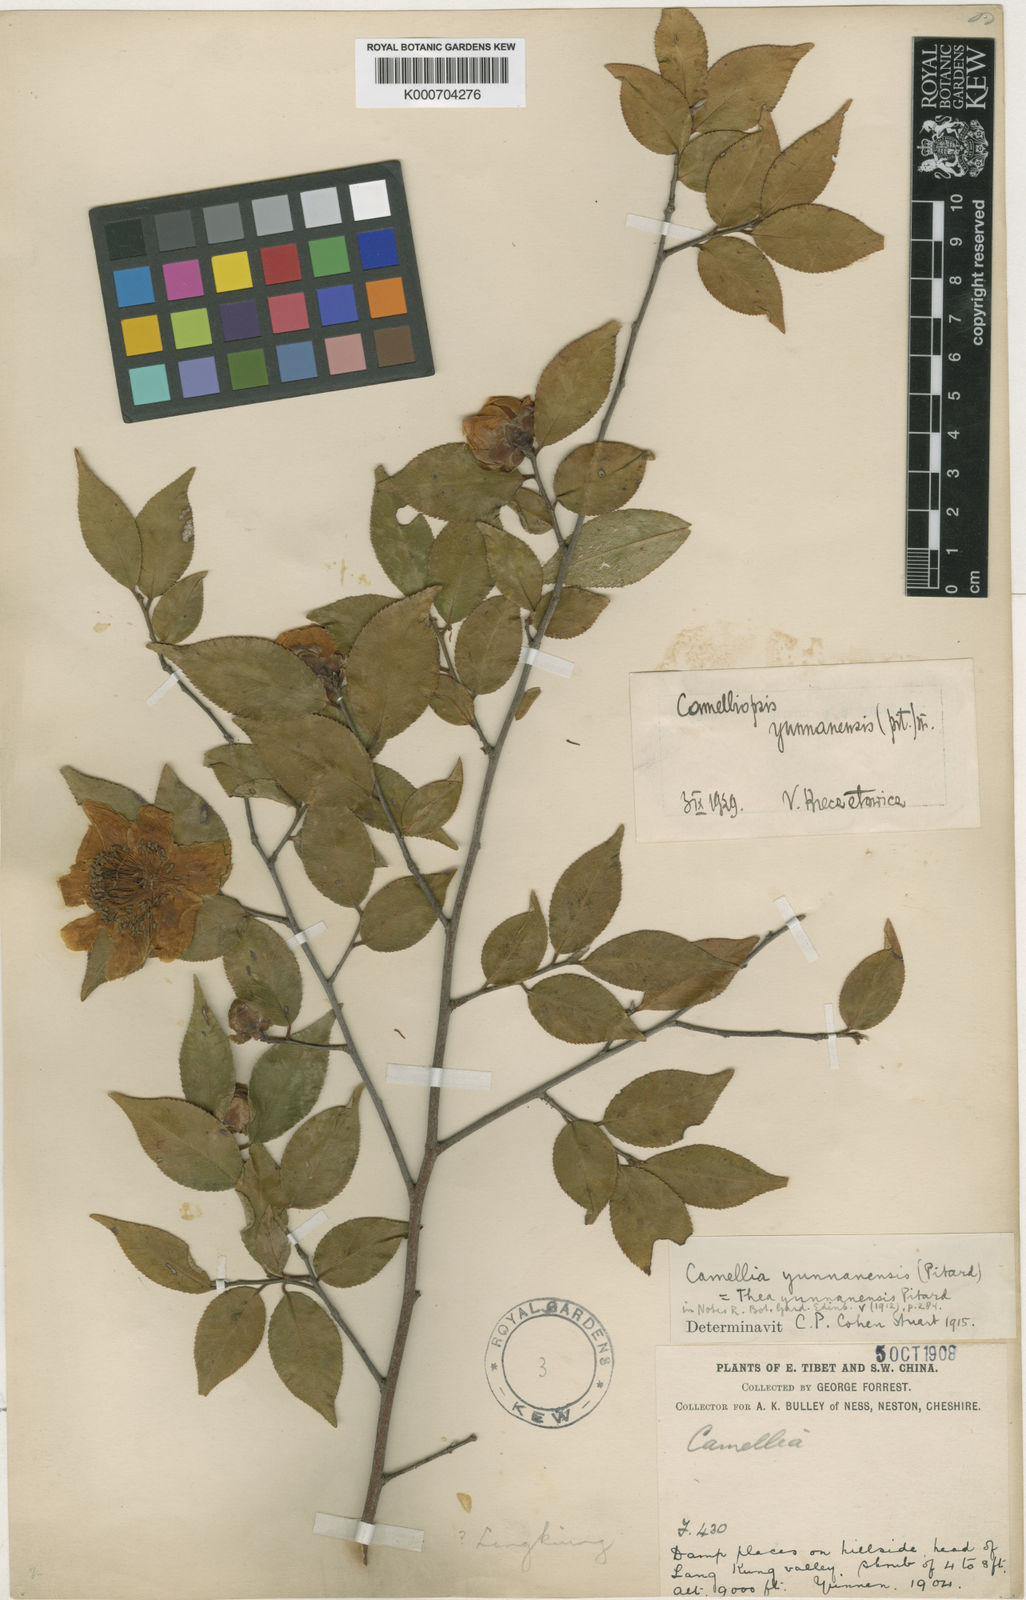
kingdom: Plantae
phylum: Tracheophyta
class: Magnoliopsida
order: Ericales
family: Theaceae
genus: Camellia
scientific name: Camellia
